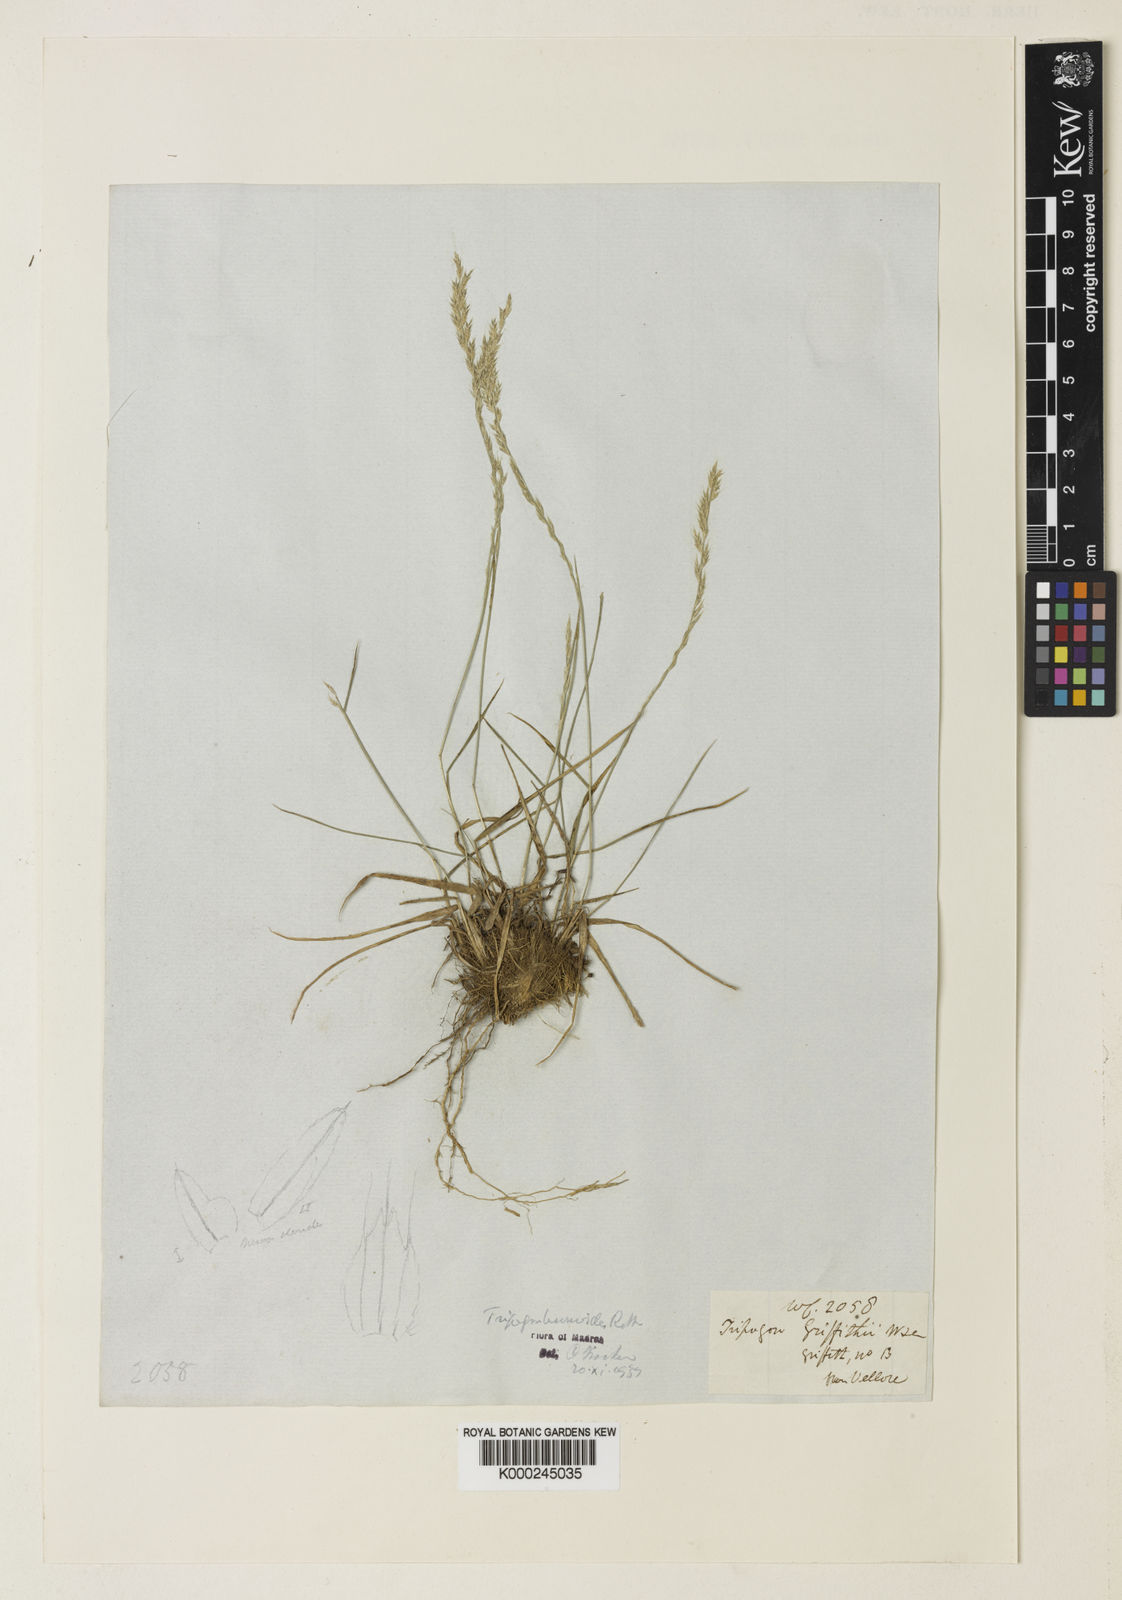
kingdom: Plantae
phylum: Tracheophyta
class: Liliopsida
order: Poales
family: Poaceae
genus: Tripogon
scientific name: Tripogon
